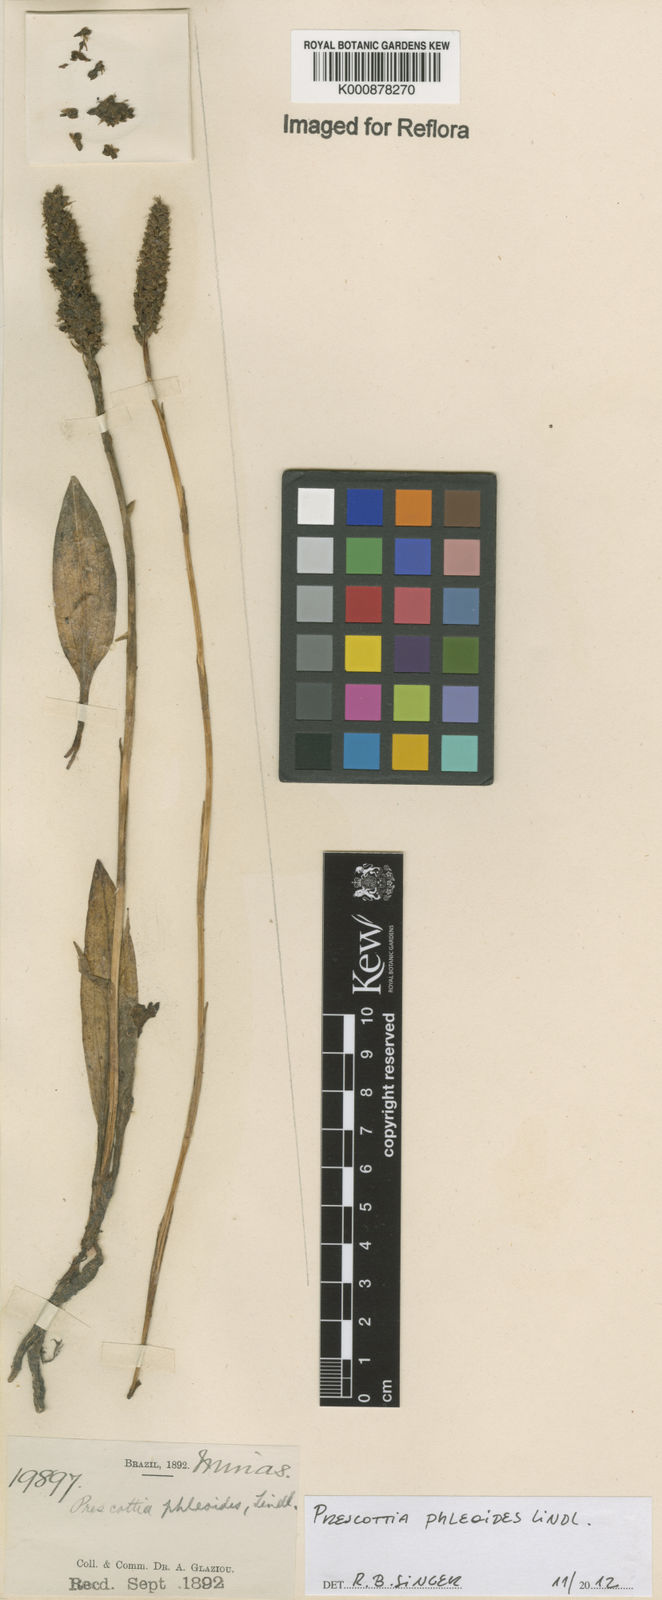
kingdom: Plantae
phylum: Tracheophyta
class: Liliopsida
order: Asparagales
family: Orchidaceae
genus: Prescottia
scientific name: Prescottia phleoides
